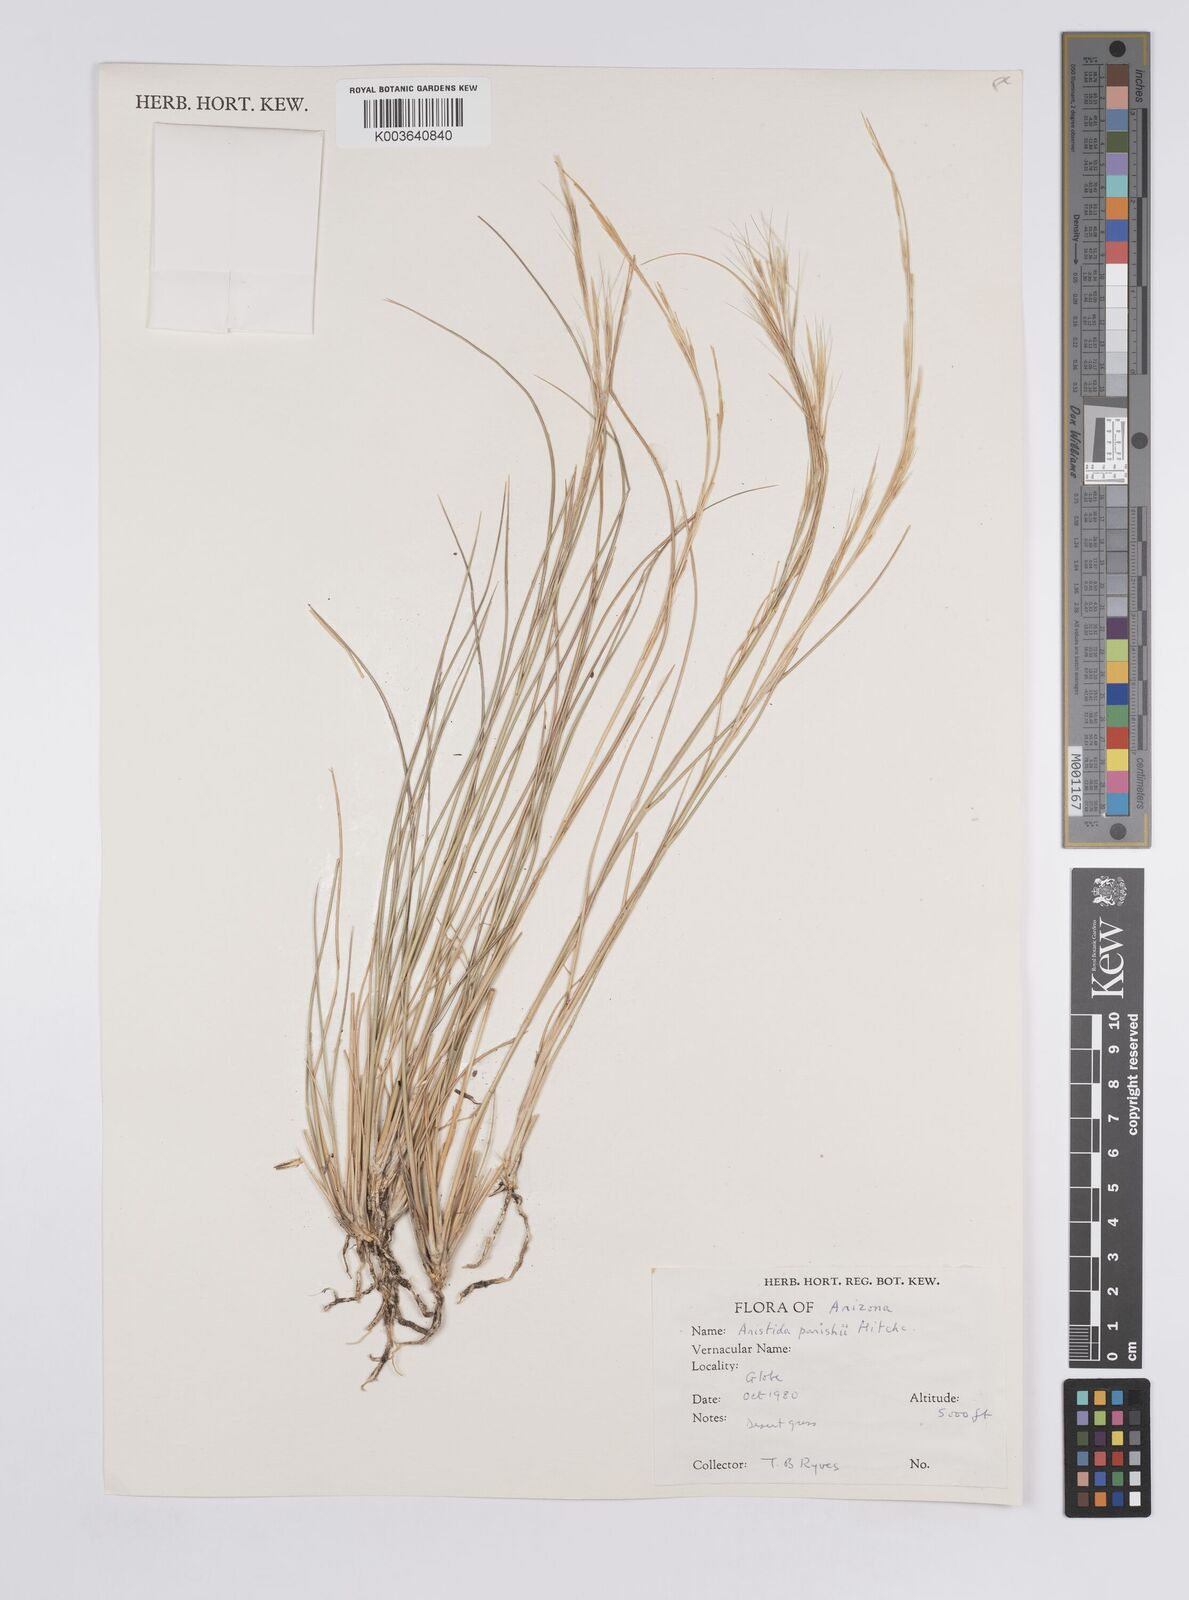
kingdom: Plantae
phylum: Tracheophyta
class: Liliopsida
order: Poales
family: Poaceae
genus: Aristida
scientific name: Aristida purpurea
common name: Purple threeawn
